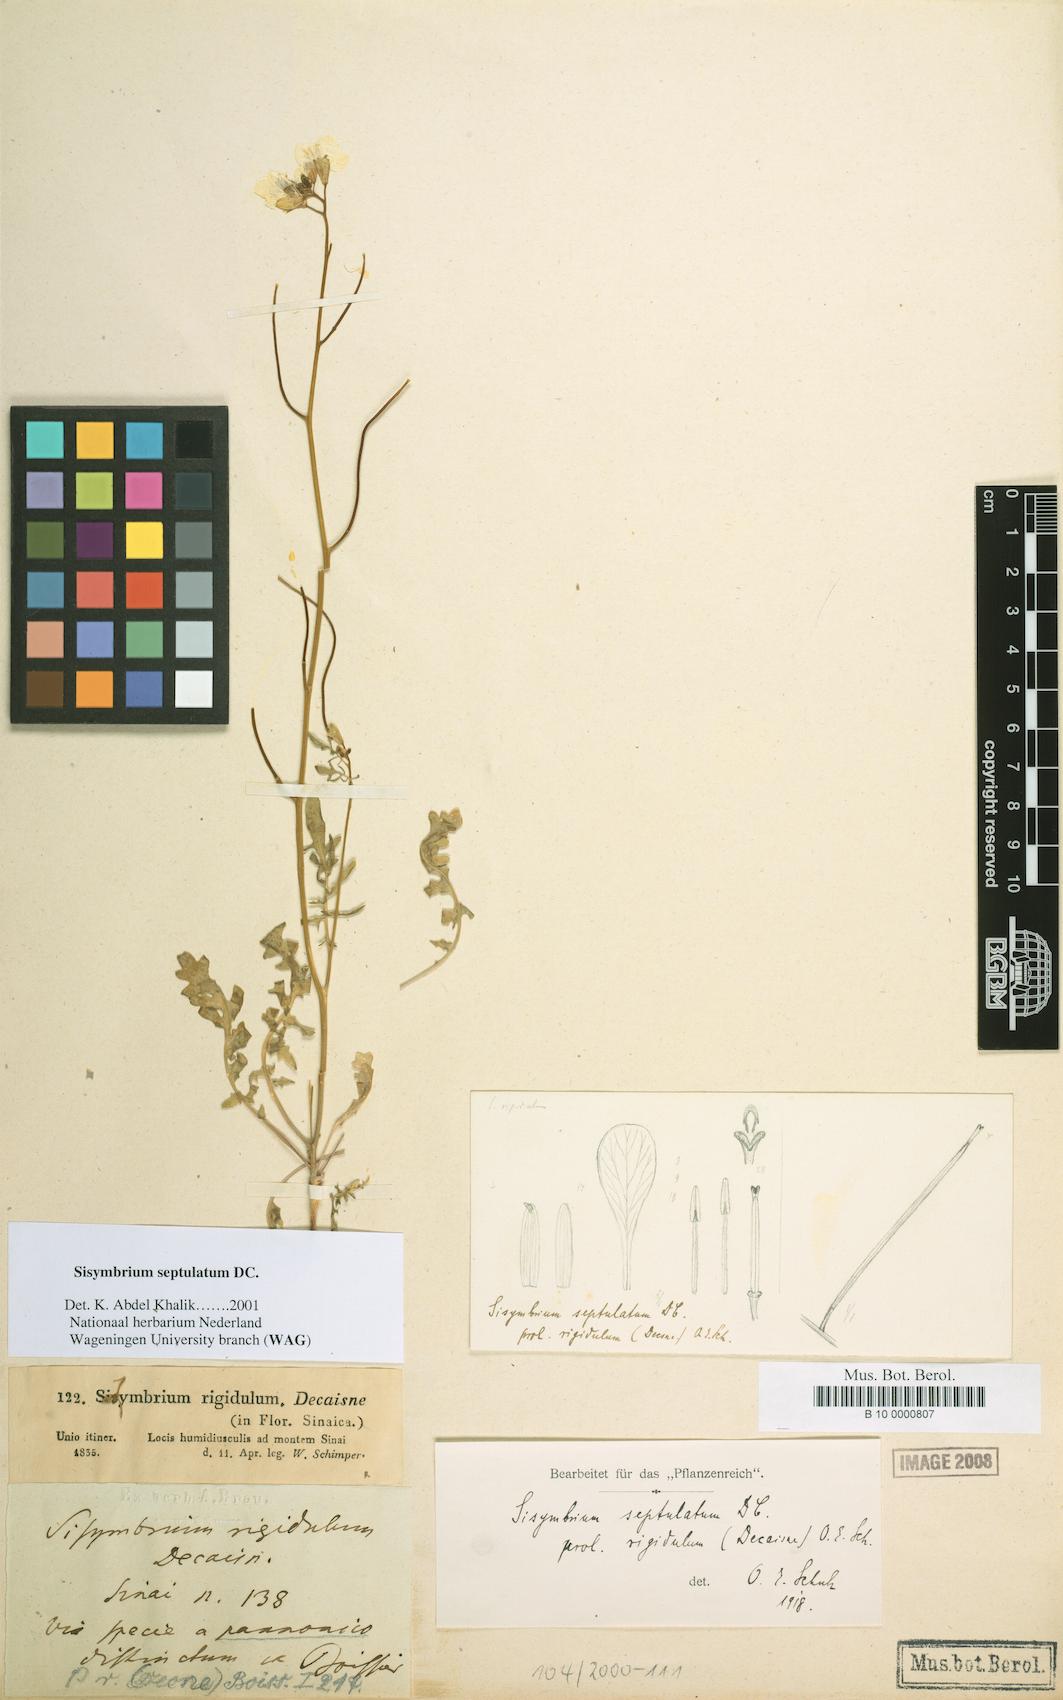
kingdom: Plantae
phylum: Tracheophyta
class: Magnoliopsida
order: Brassicales
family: Brassicaceae
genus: Sisymbrium
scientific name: Sisymbrium septulatum
